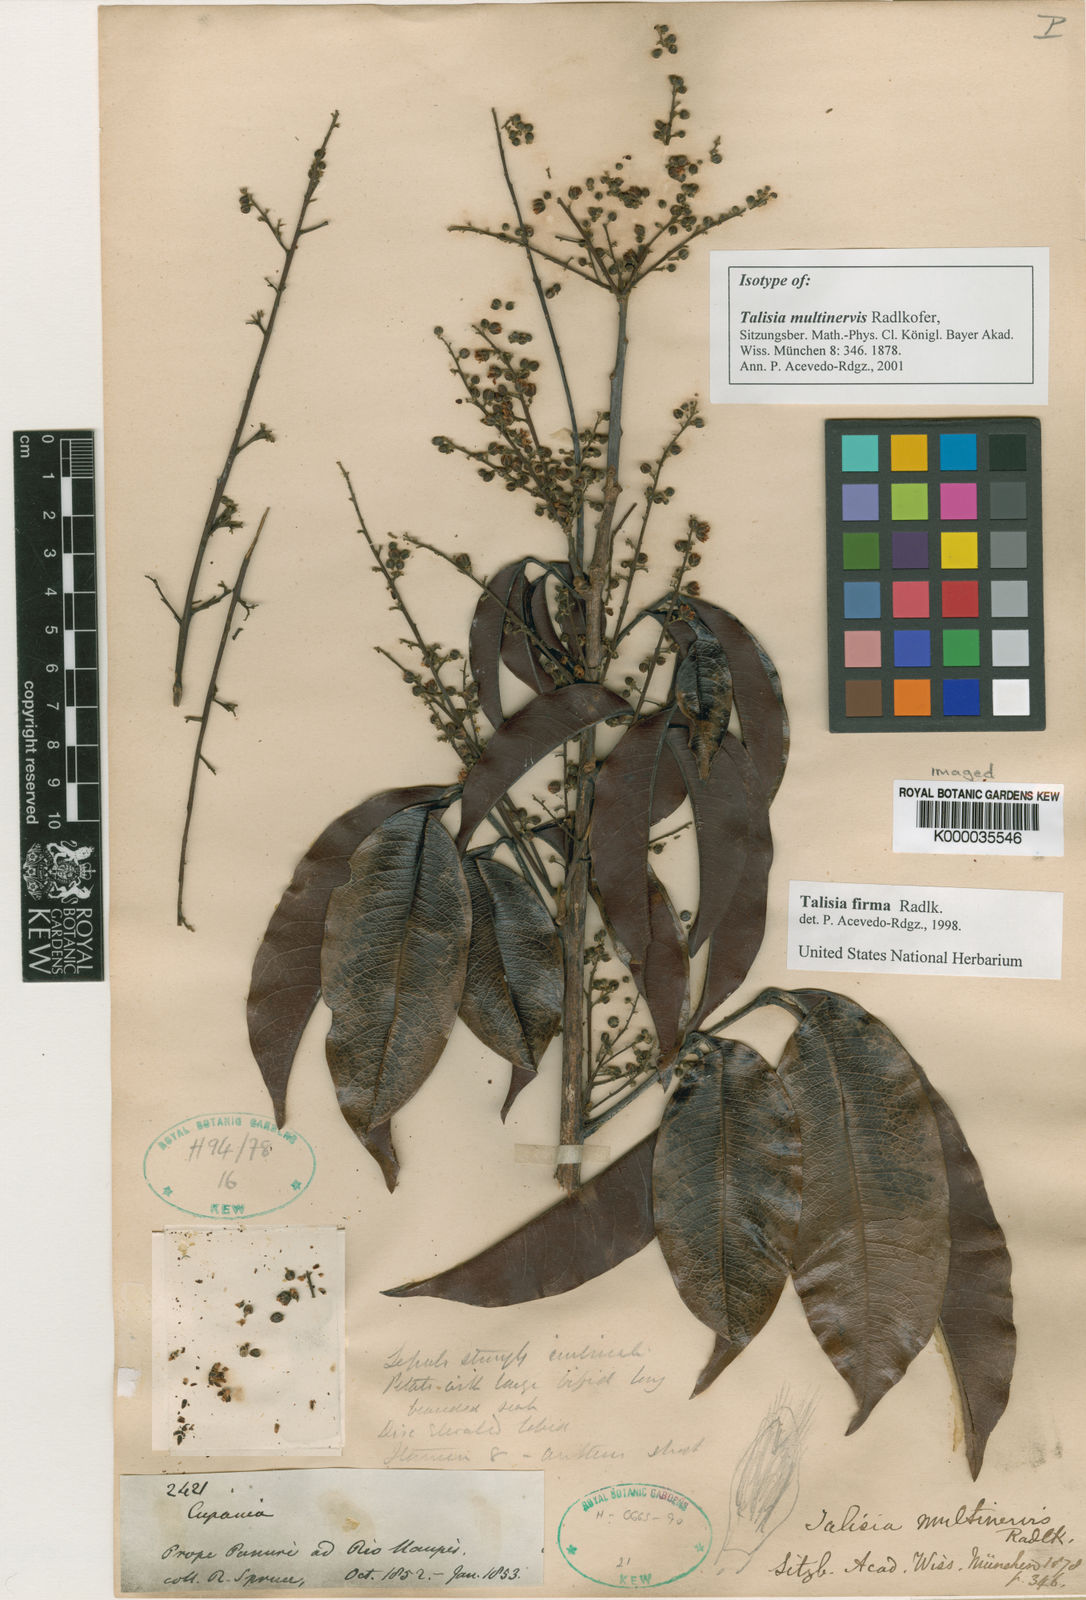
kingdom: Plantae
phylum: Tracheophyta
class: Magnoliopsida
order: Sapindales
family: Sapindaceae
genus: Talisia
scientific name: Talisia firma
